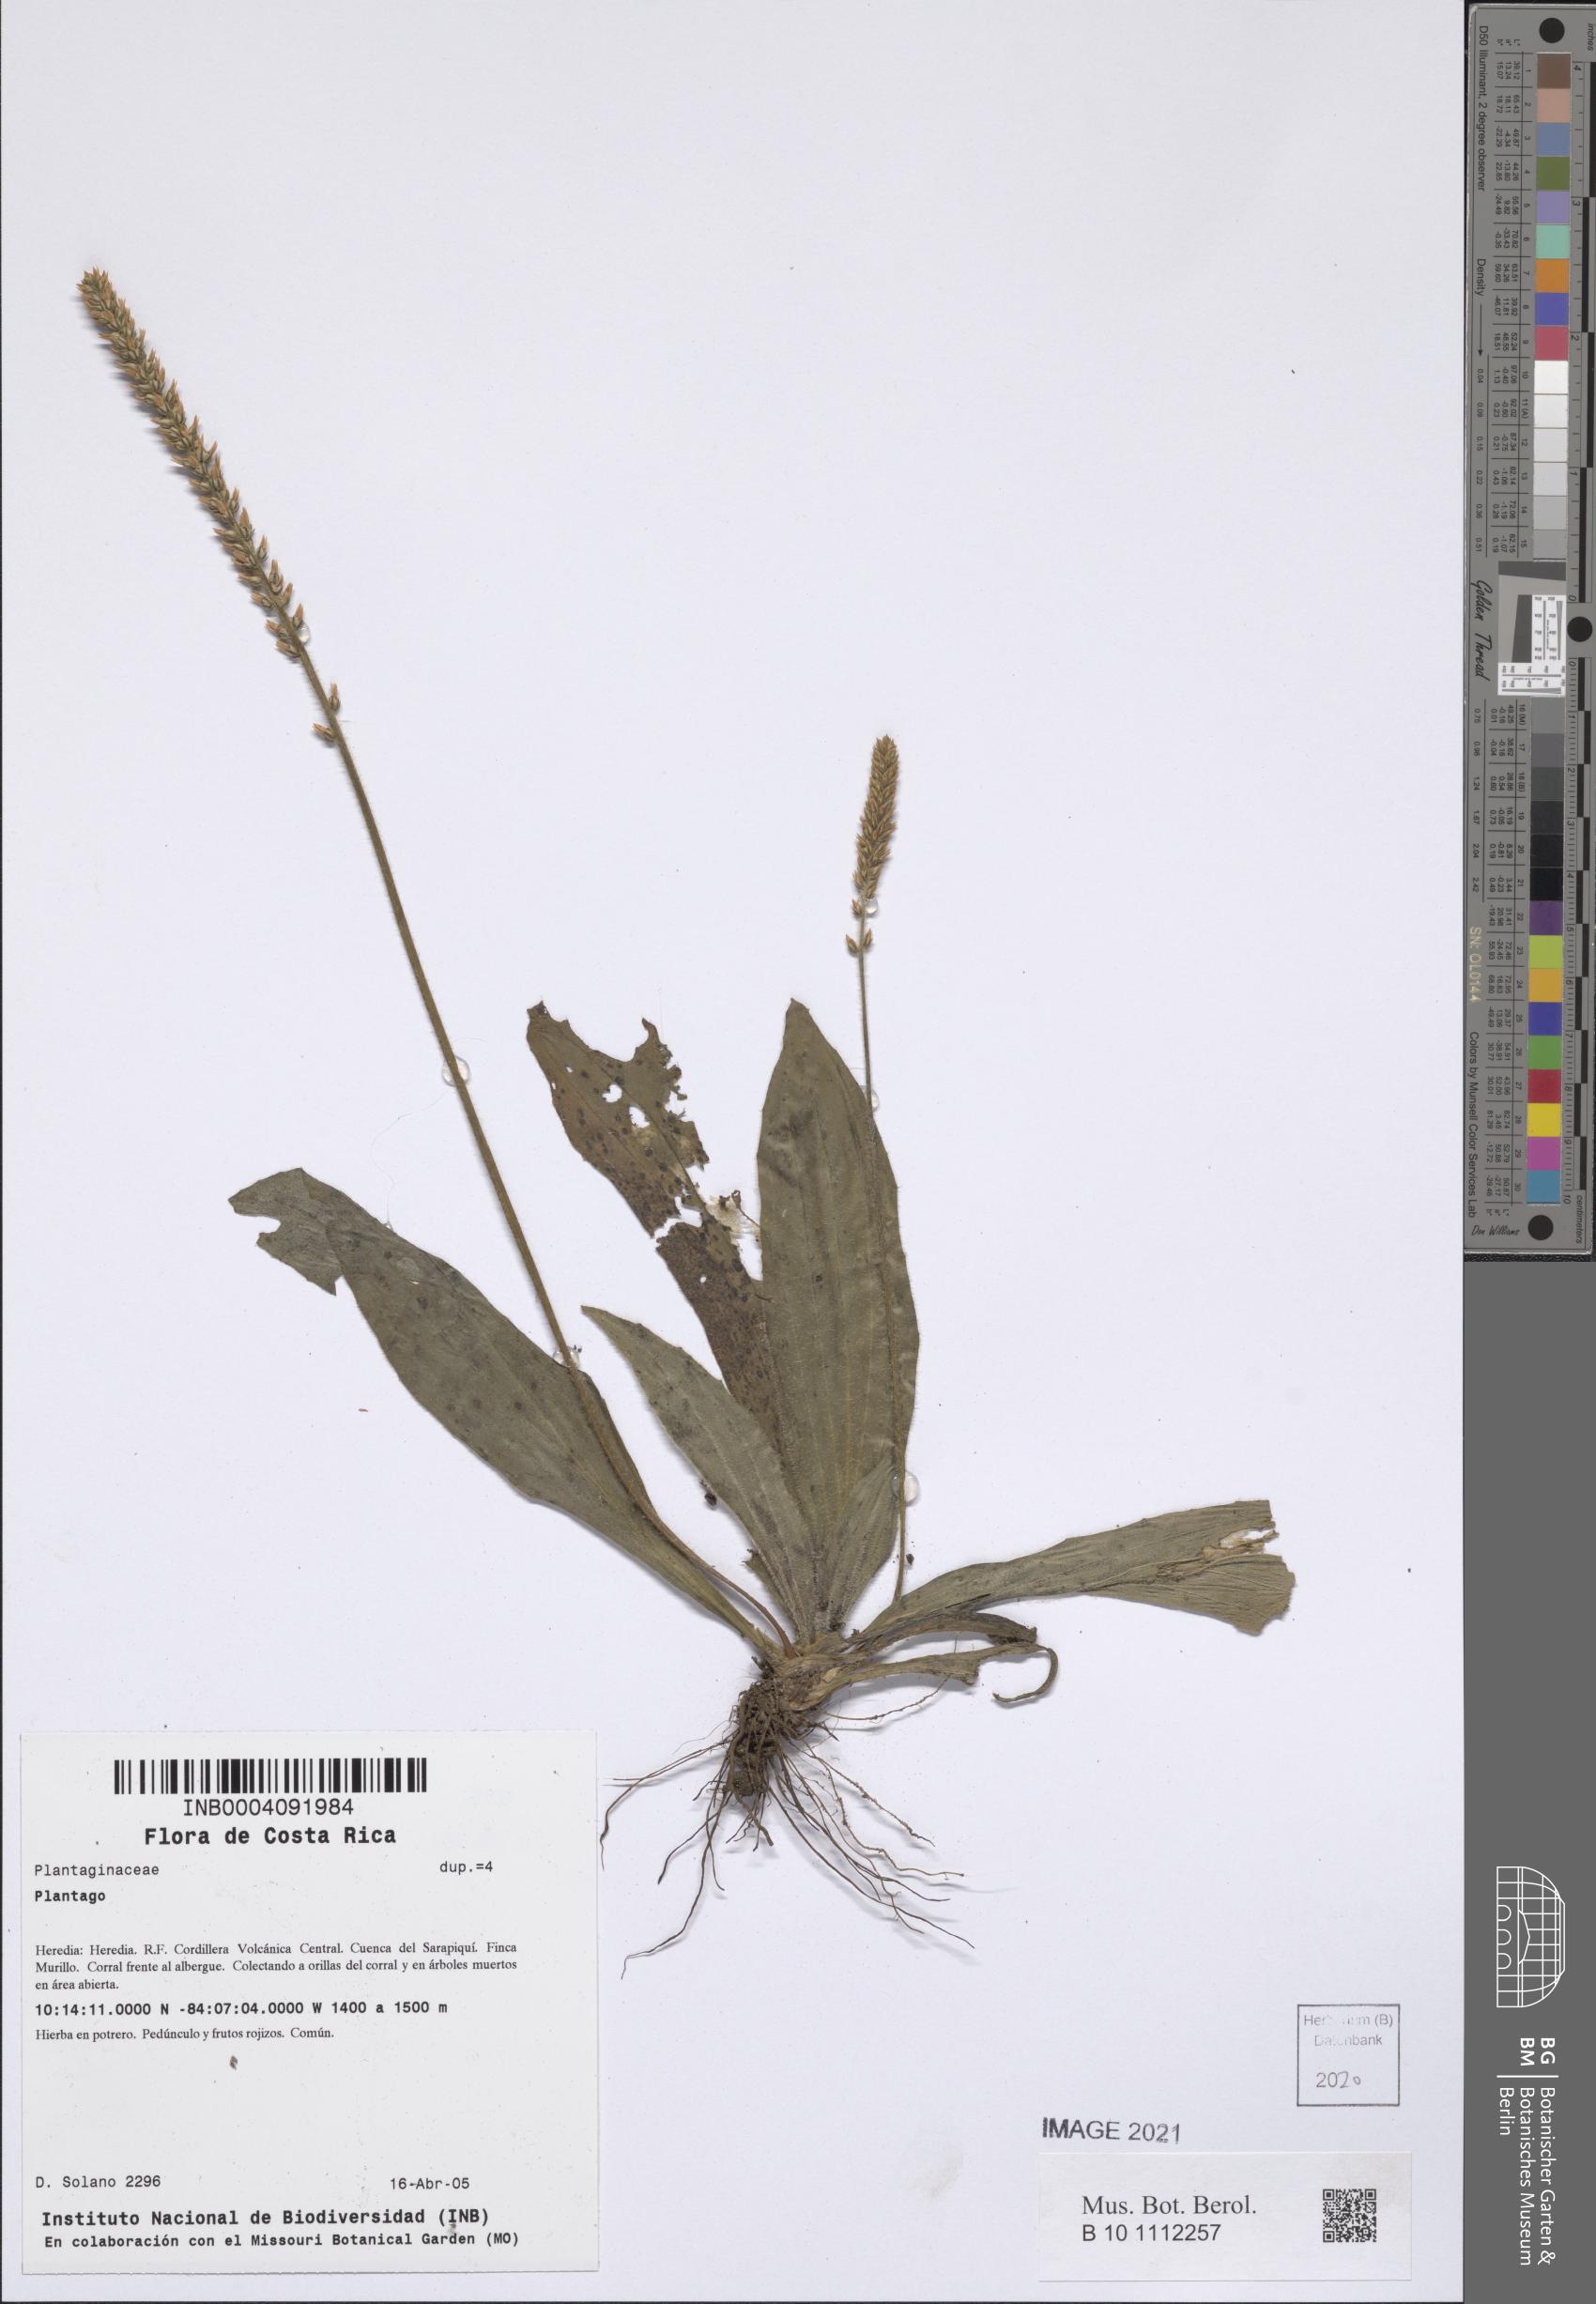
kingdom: Plantae
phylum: Tracheophyta
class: Magnoliopsida
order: Lamiales
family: Plantaginaceae
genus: Plantago
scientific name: Plantago
